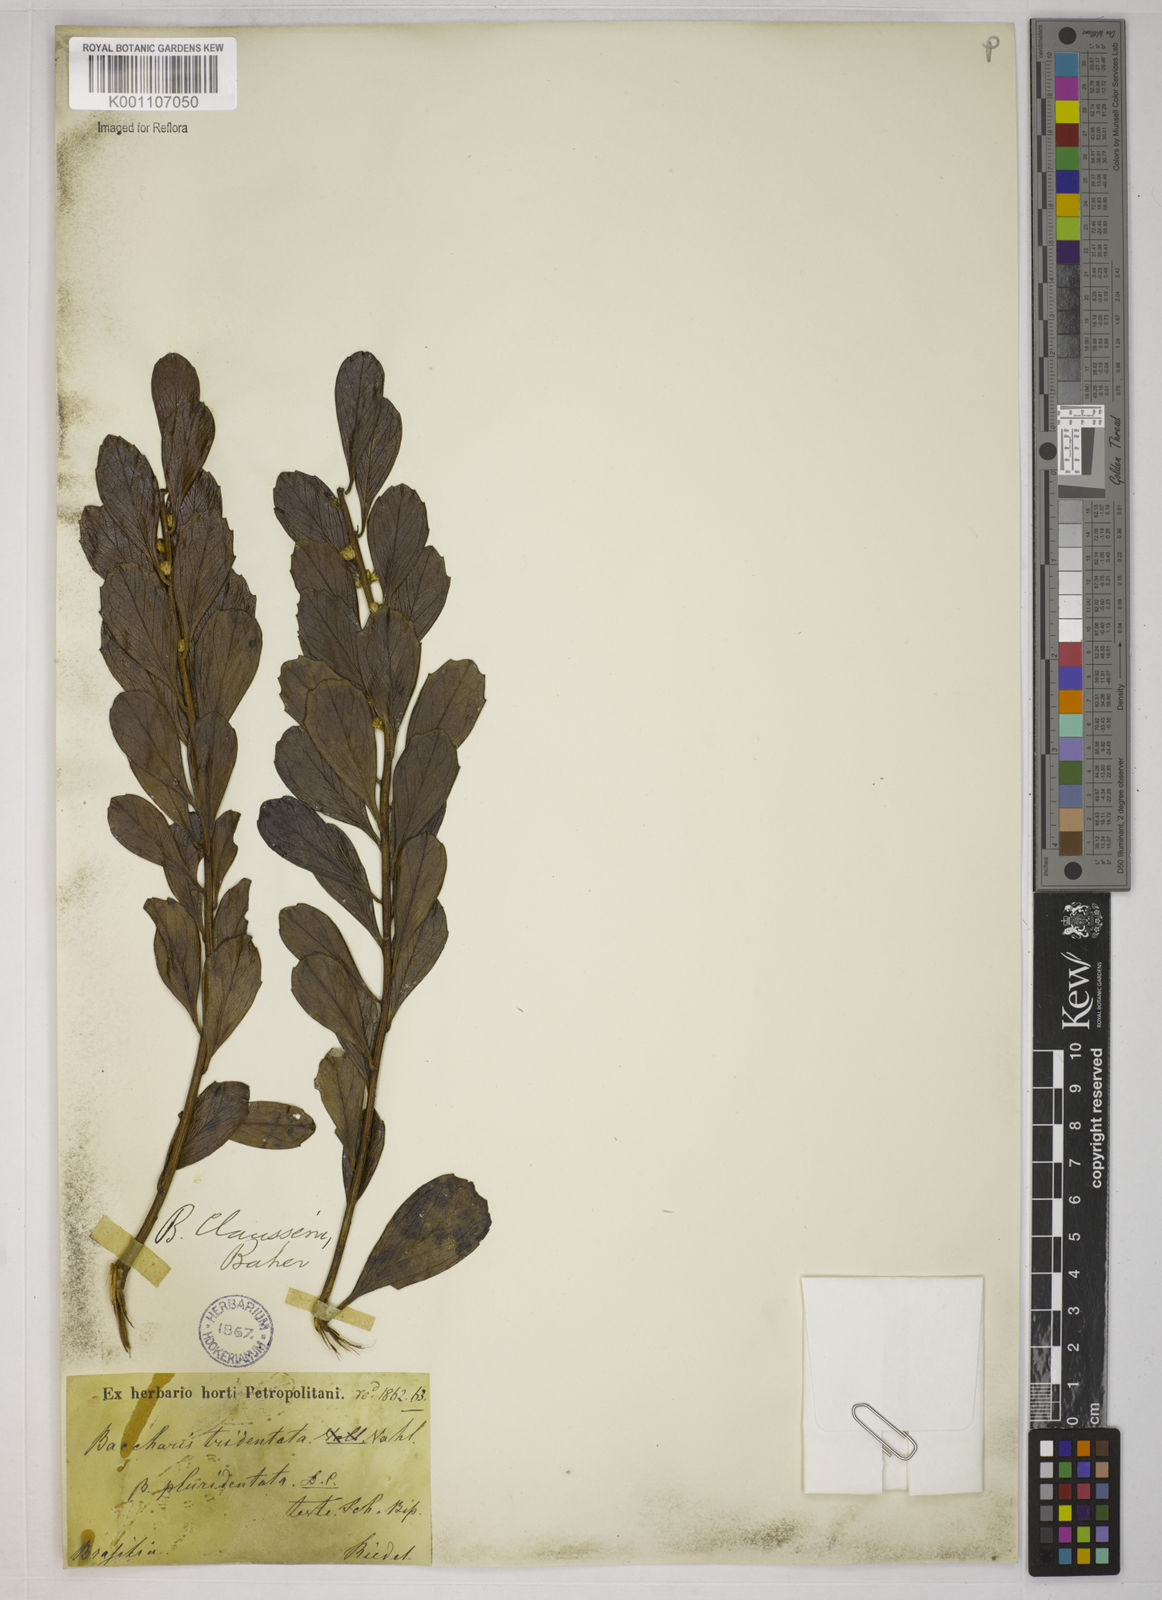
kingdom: Plantae
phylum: Tracheophyta
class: Magnoliopsida
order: Asterales
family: Asteraceae
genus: Baccharis
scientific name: Baccharis
